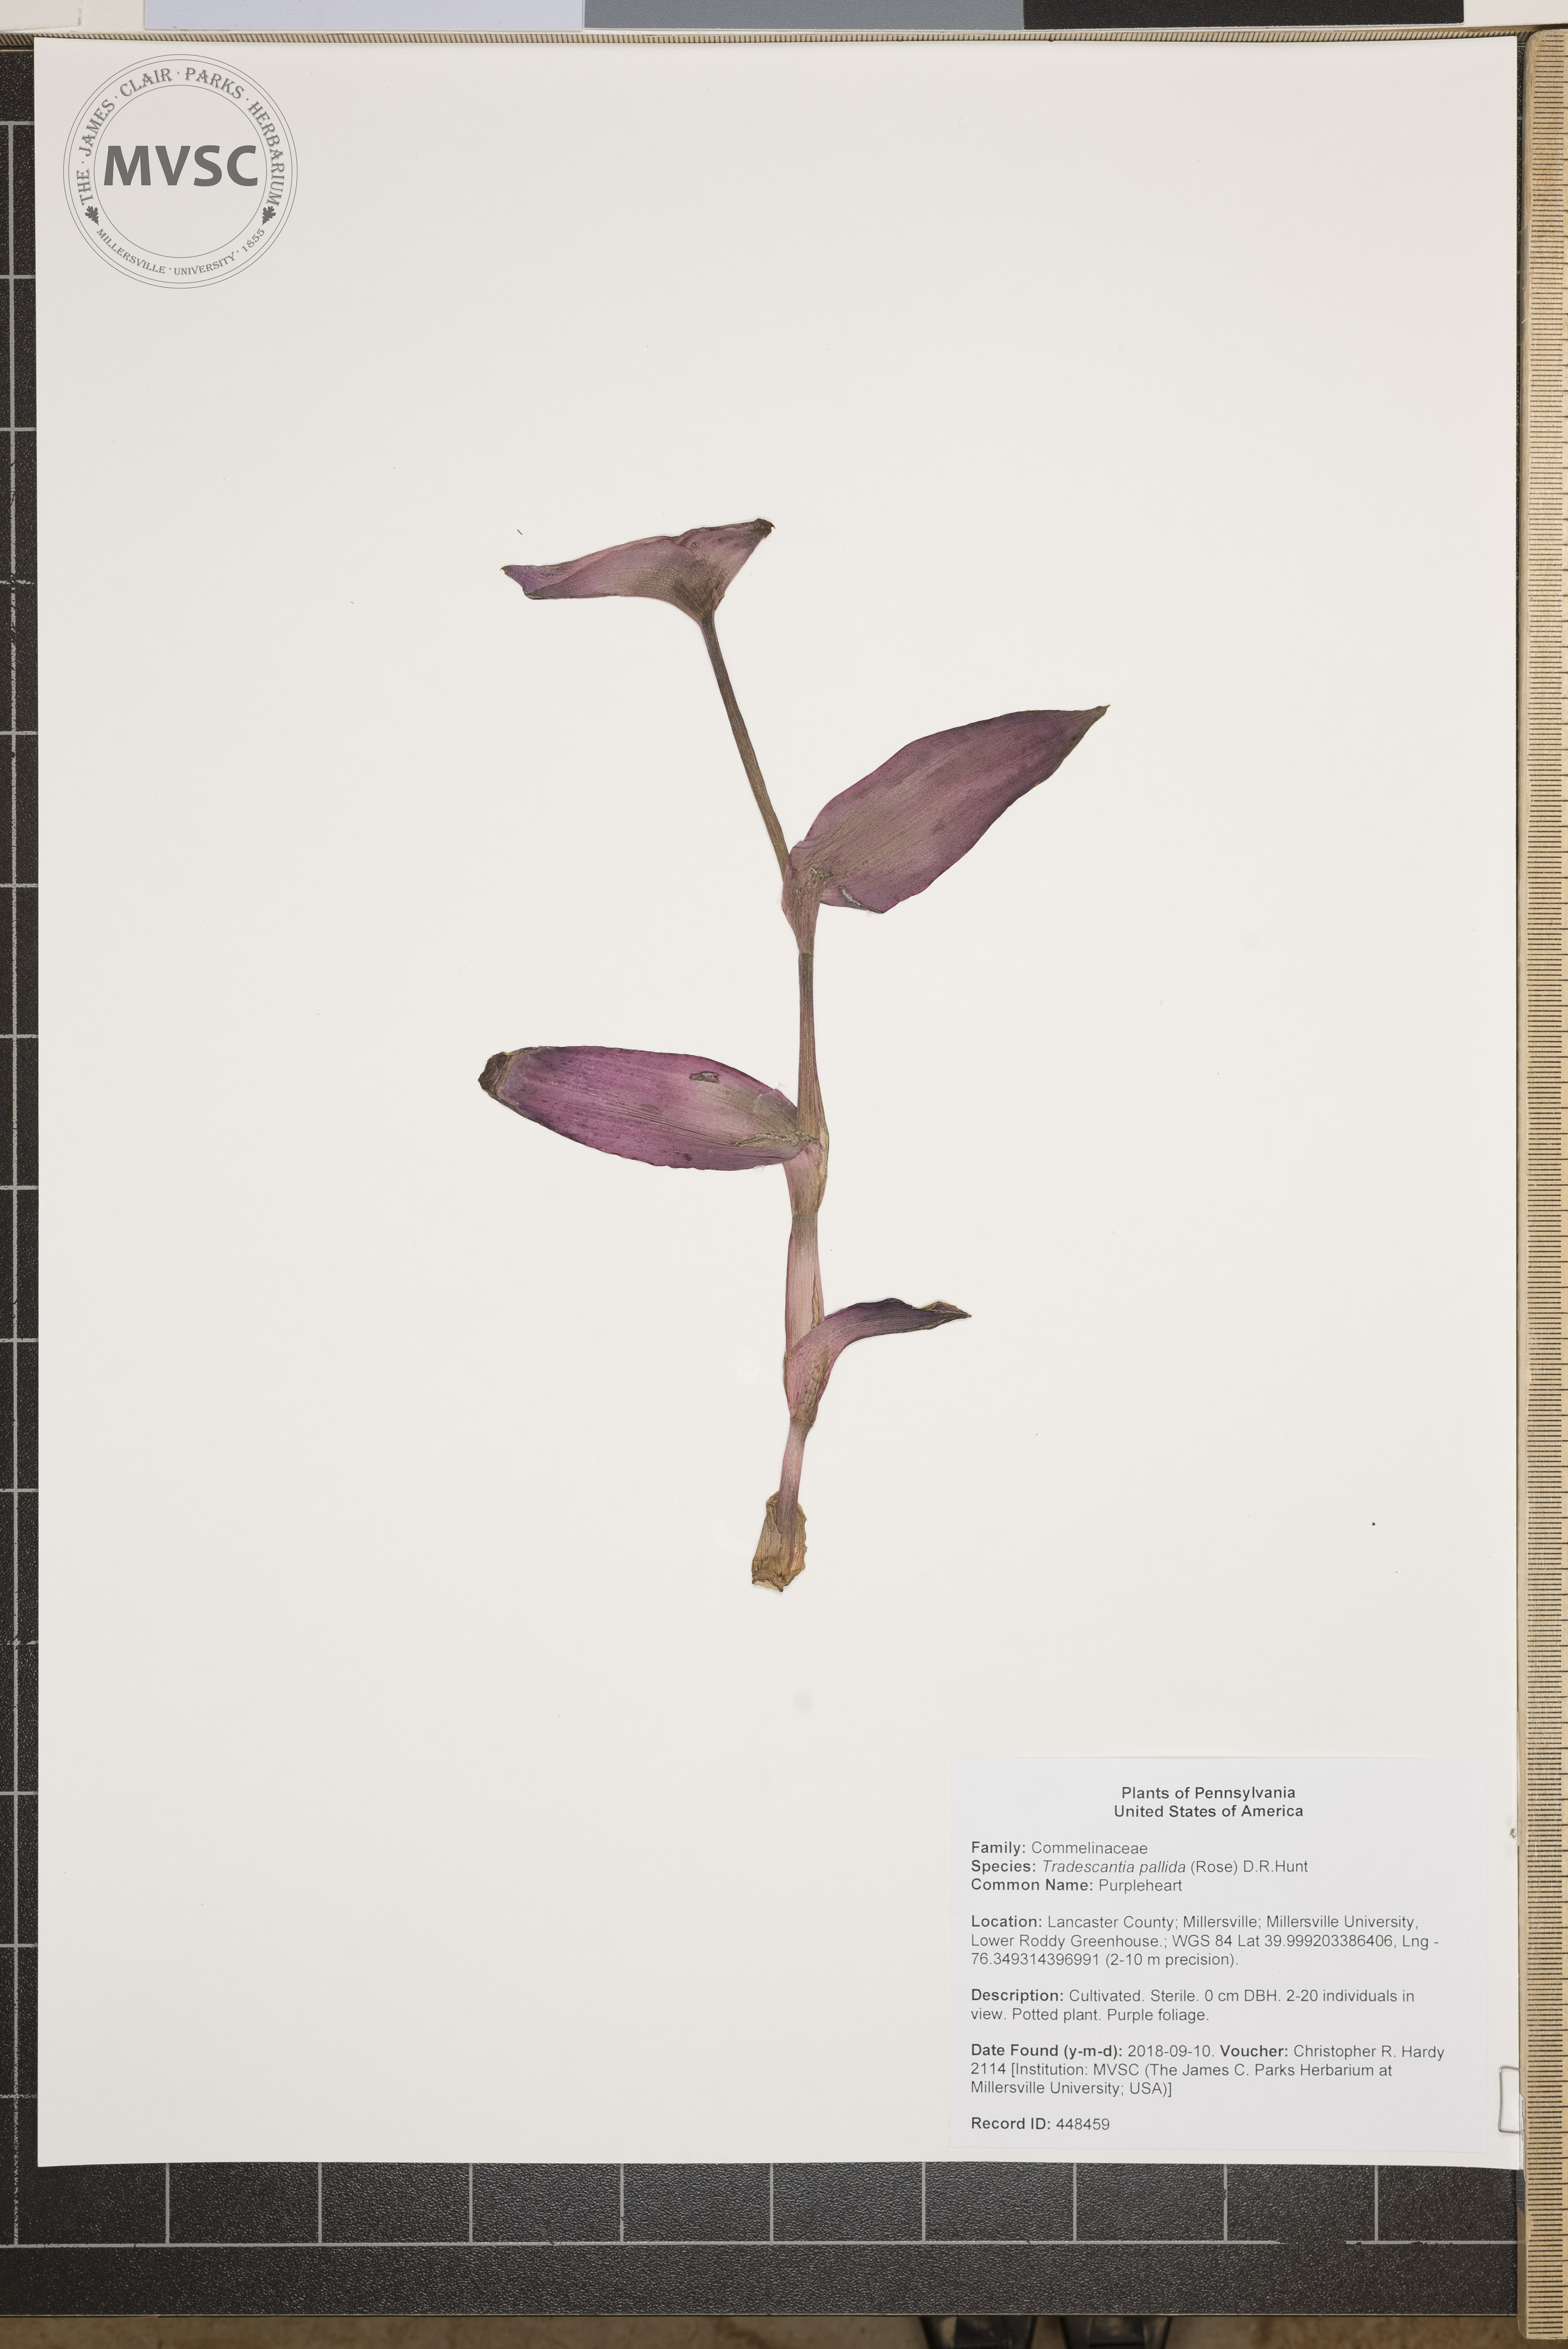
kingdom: Plantae
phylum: Tracheophyta
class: Liliopsida
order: Commelinales
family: Commelinaceae
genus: Tradescantia
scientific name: Tradescantia pallida
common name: Purpleheart
